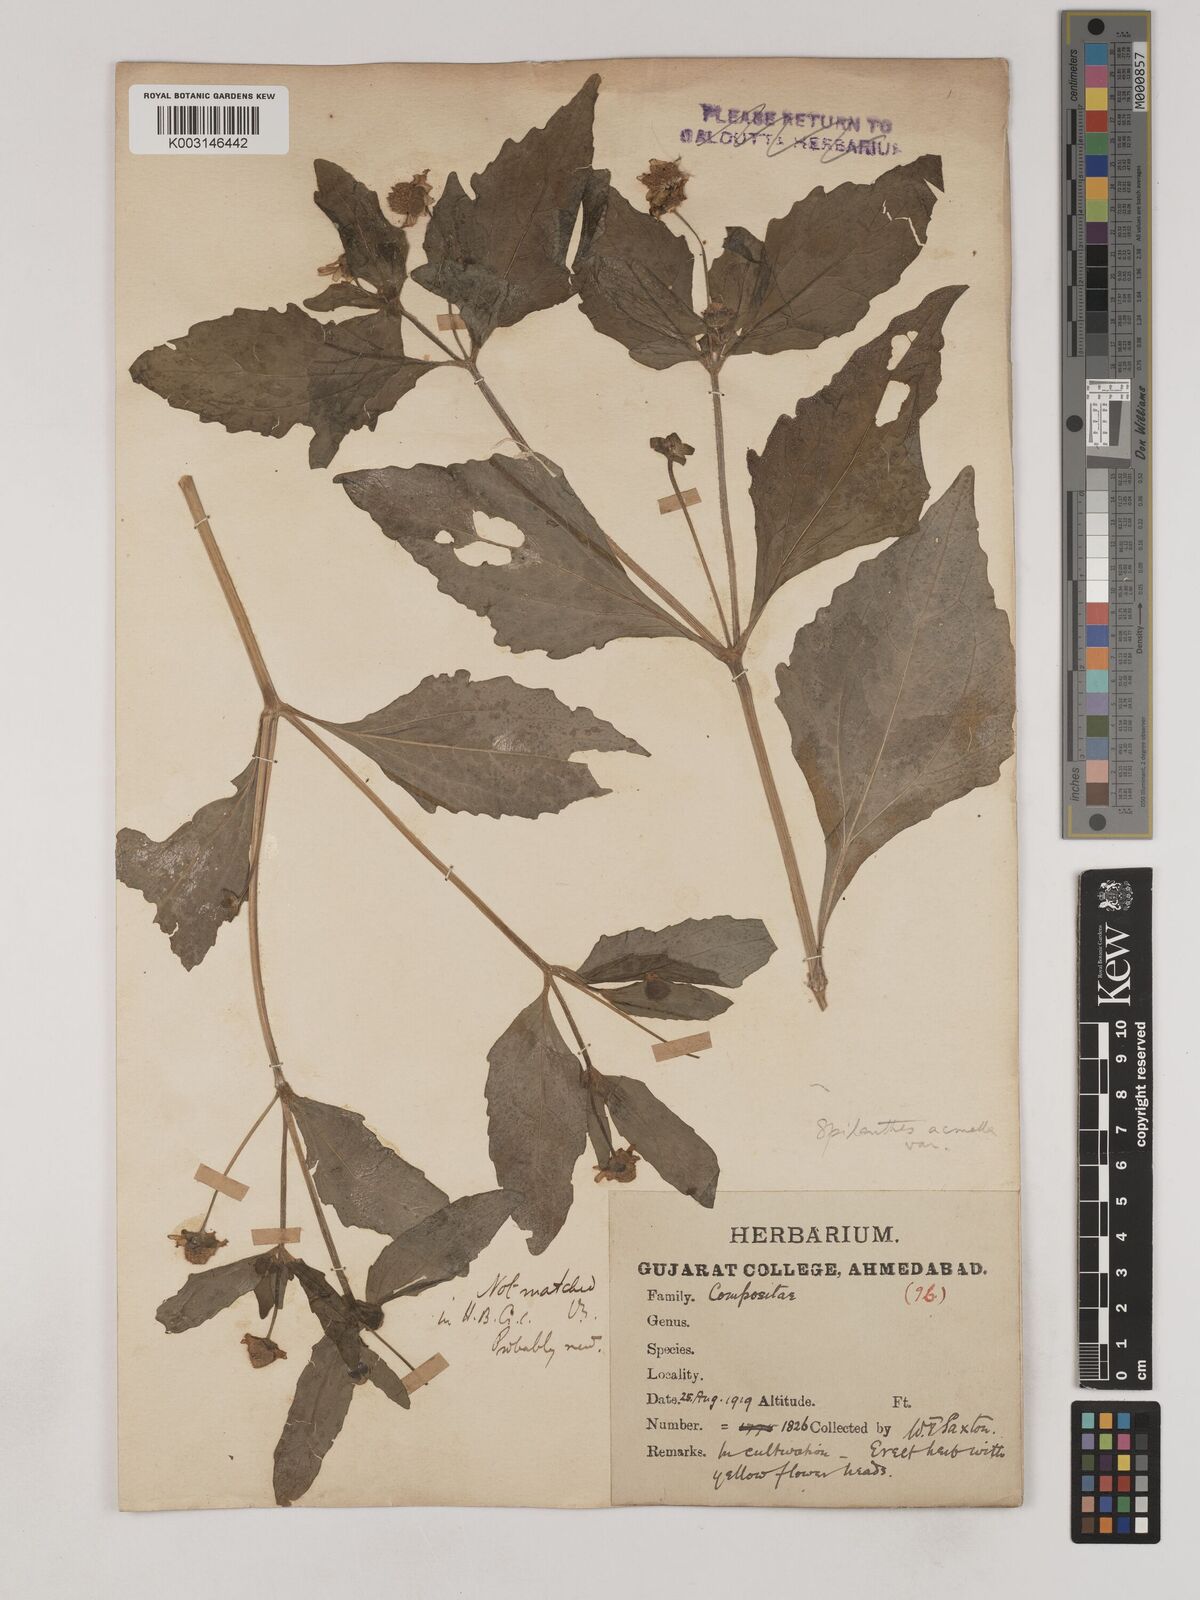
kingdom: Plantae
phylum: Tracheophyta
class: Magnoliopsida
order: Asterales
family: Asteraceae
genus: Acmella
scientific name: Acmella oleracea
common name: Brazilian cress
